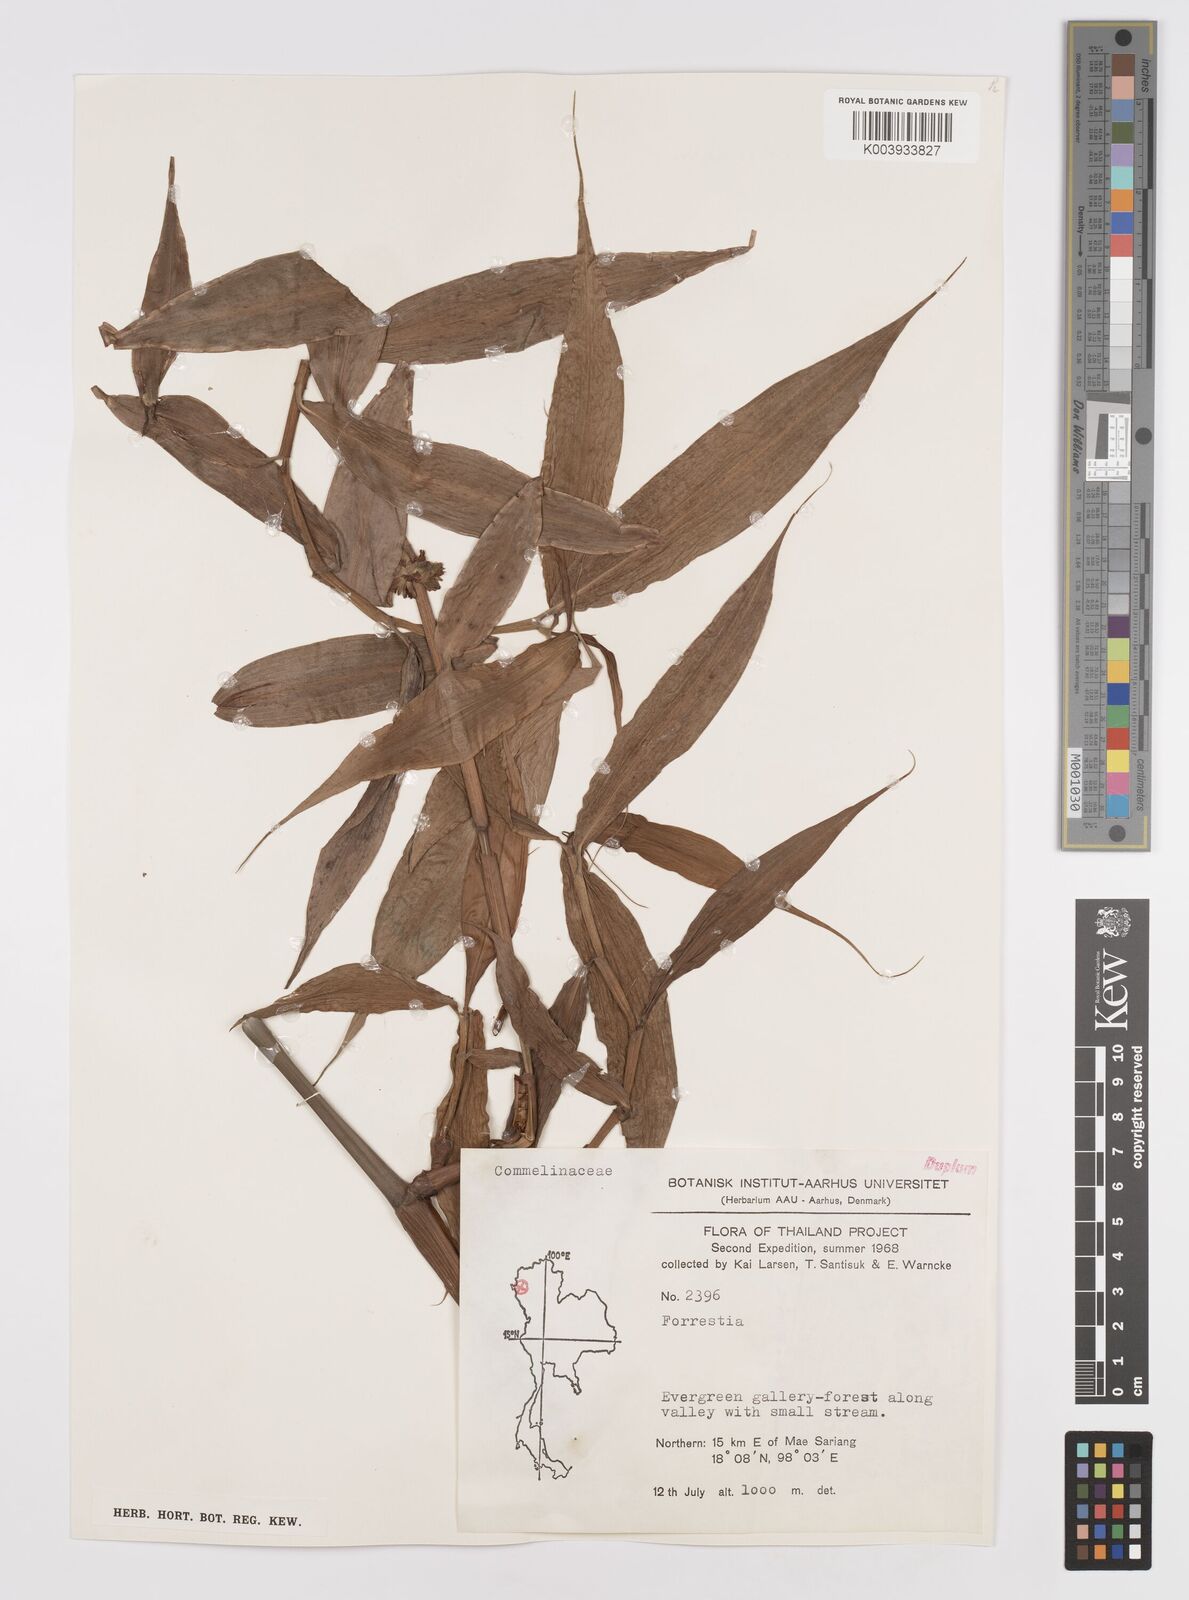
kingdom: Plantae
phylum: Tracheophyta
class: Liliopsida
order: Commelinales
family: Commelinaceae
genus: Amischotolype
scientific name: Amischotolype glabrata
